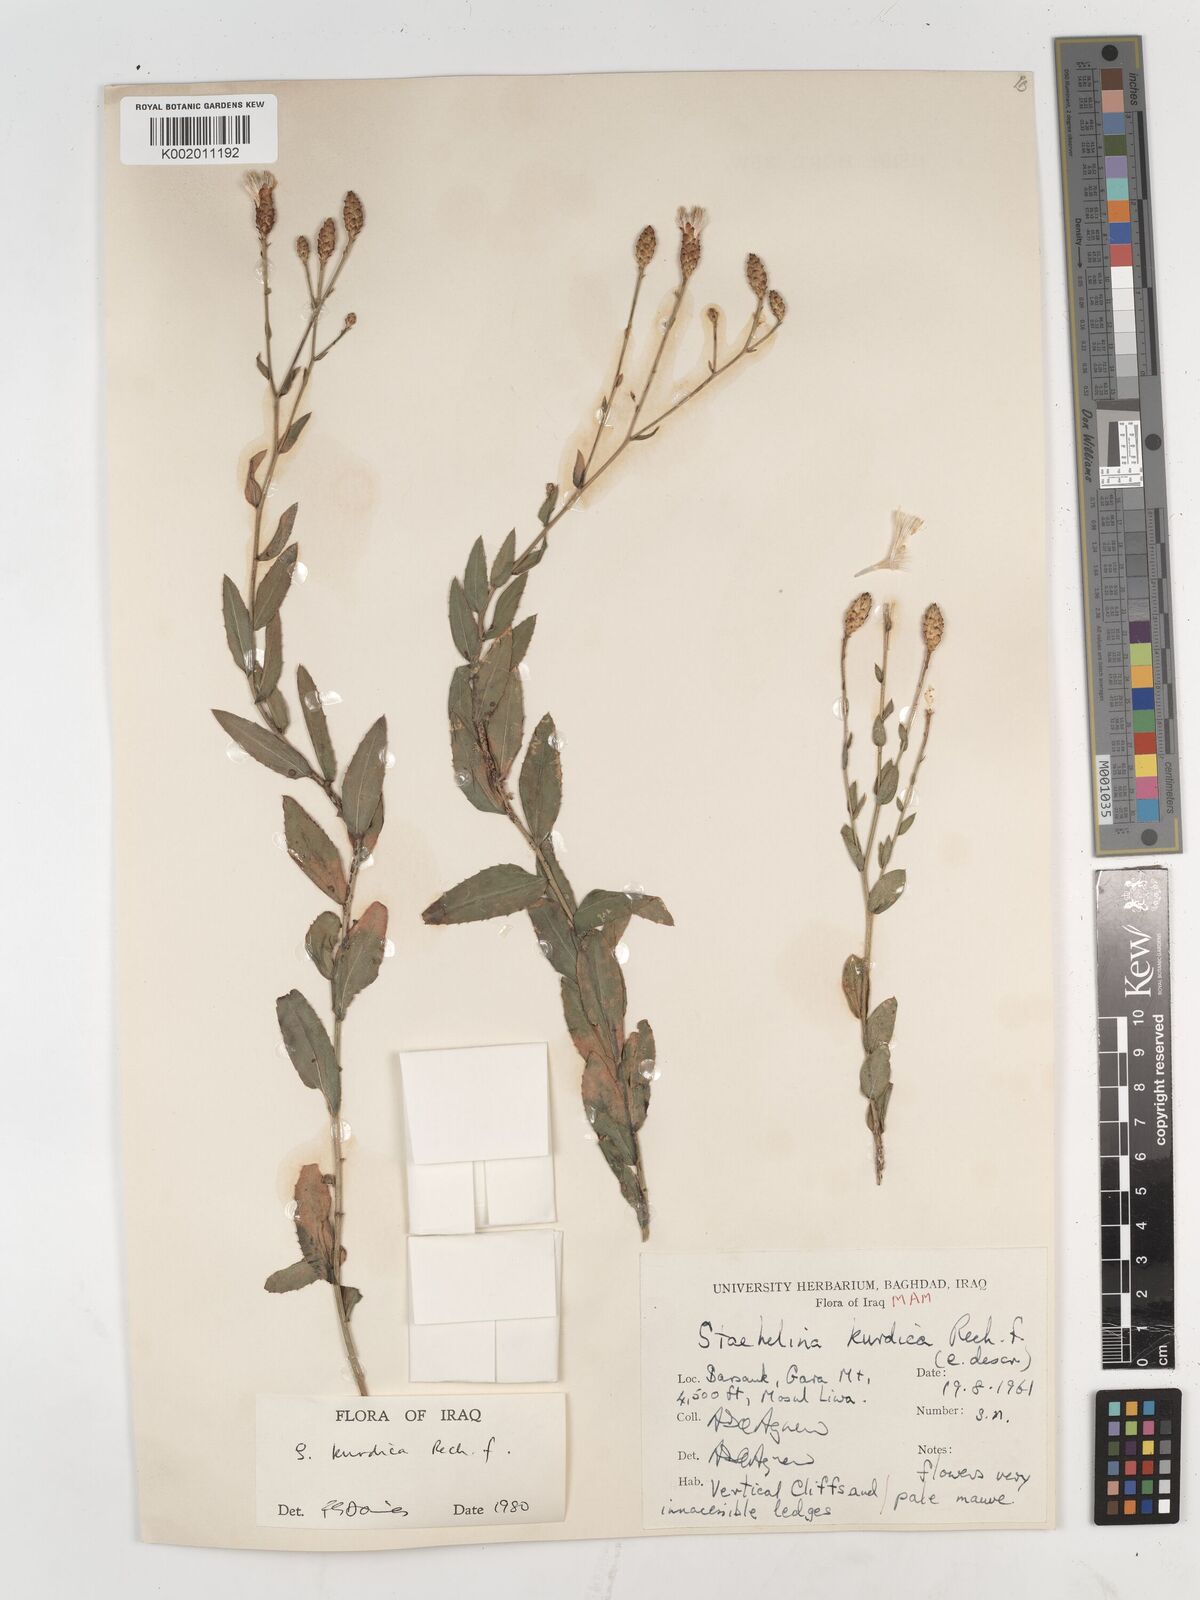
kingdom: Plantae
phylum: Tracheophyta
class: Magnoliopsida
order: Asterales
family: Asteraceae
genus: Staehelina
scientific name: Staehelina
